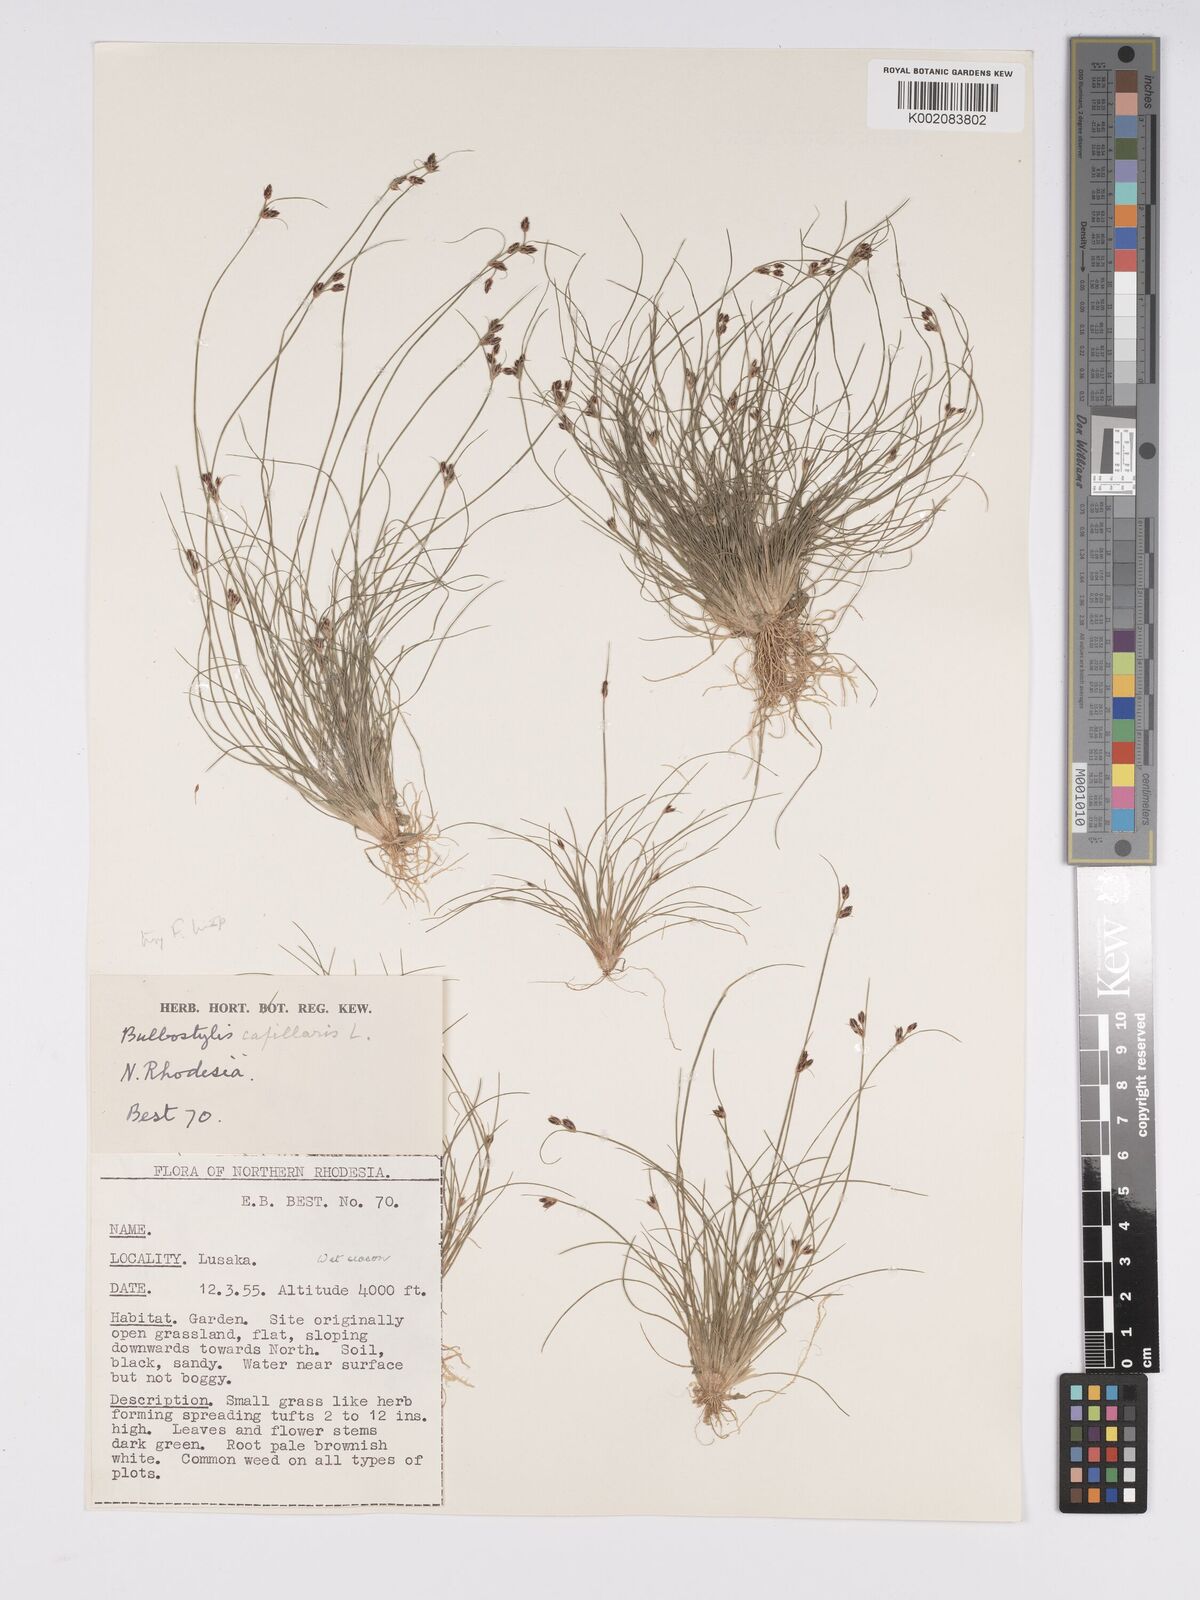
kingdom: Plantae
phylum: Tracheophyta
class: Liliopsida
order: Poales
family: Cyperaceae
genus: Bulbostylis
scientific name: Bulbostylis hispidula
